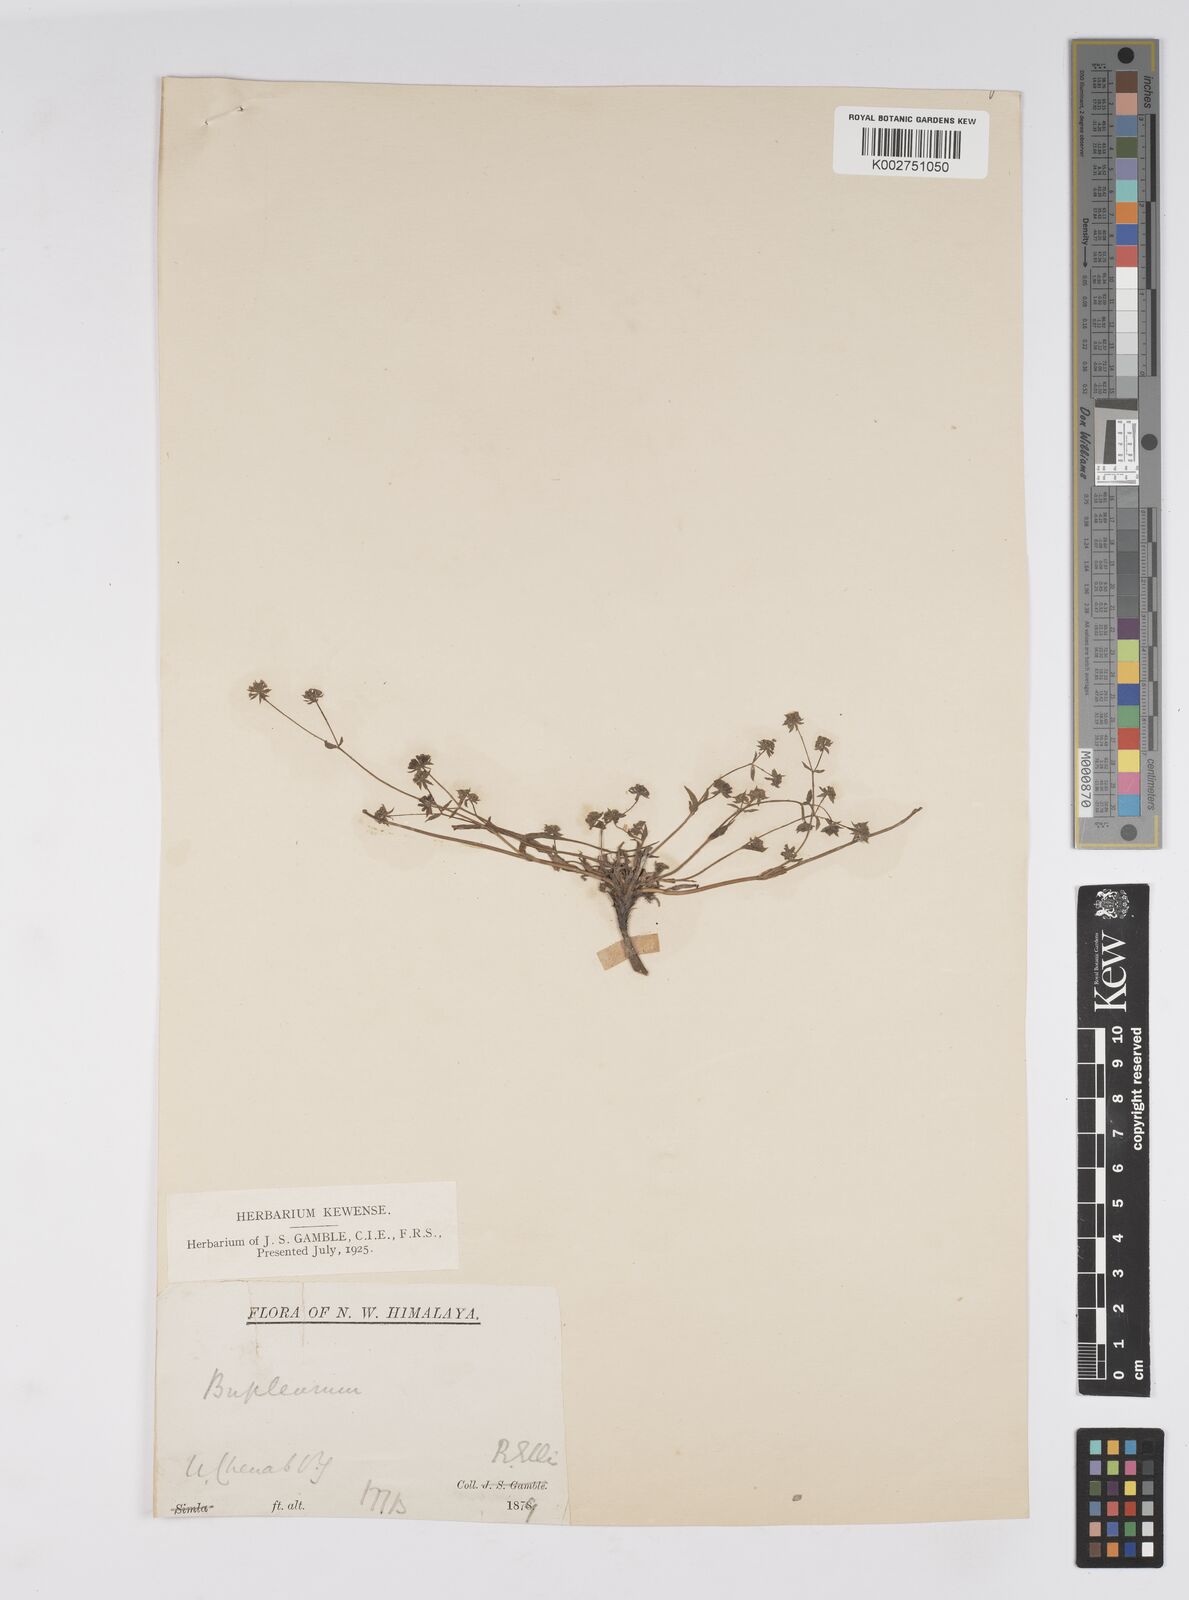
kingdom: Plantae
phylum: Tracheophyta
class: Magnoliopsida
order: Apiales
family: Apiaceae
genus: Bupleurum
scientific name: Bupleurum gracillimum
